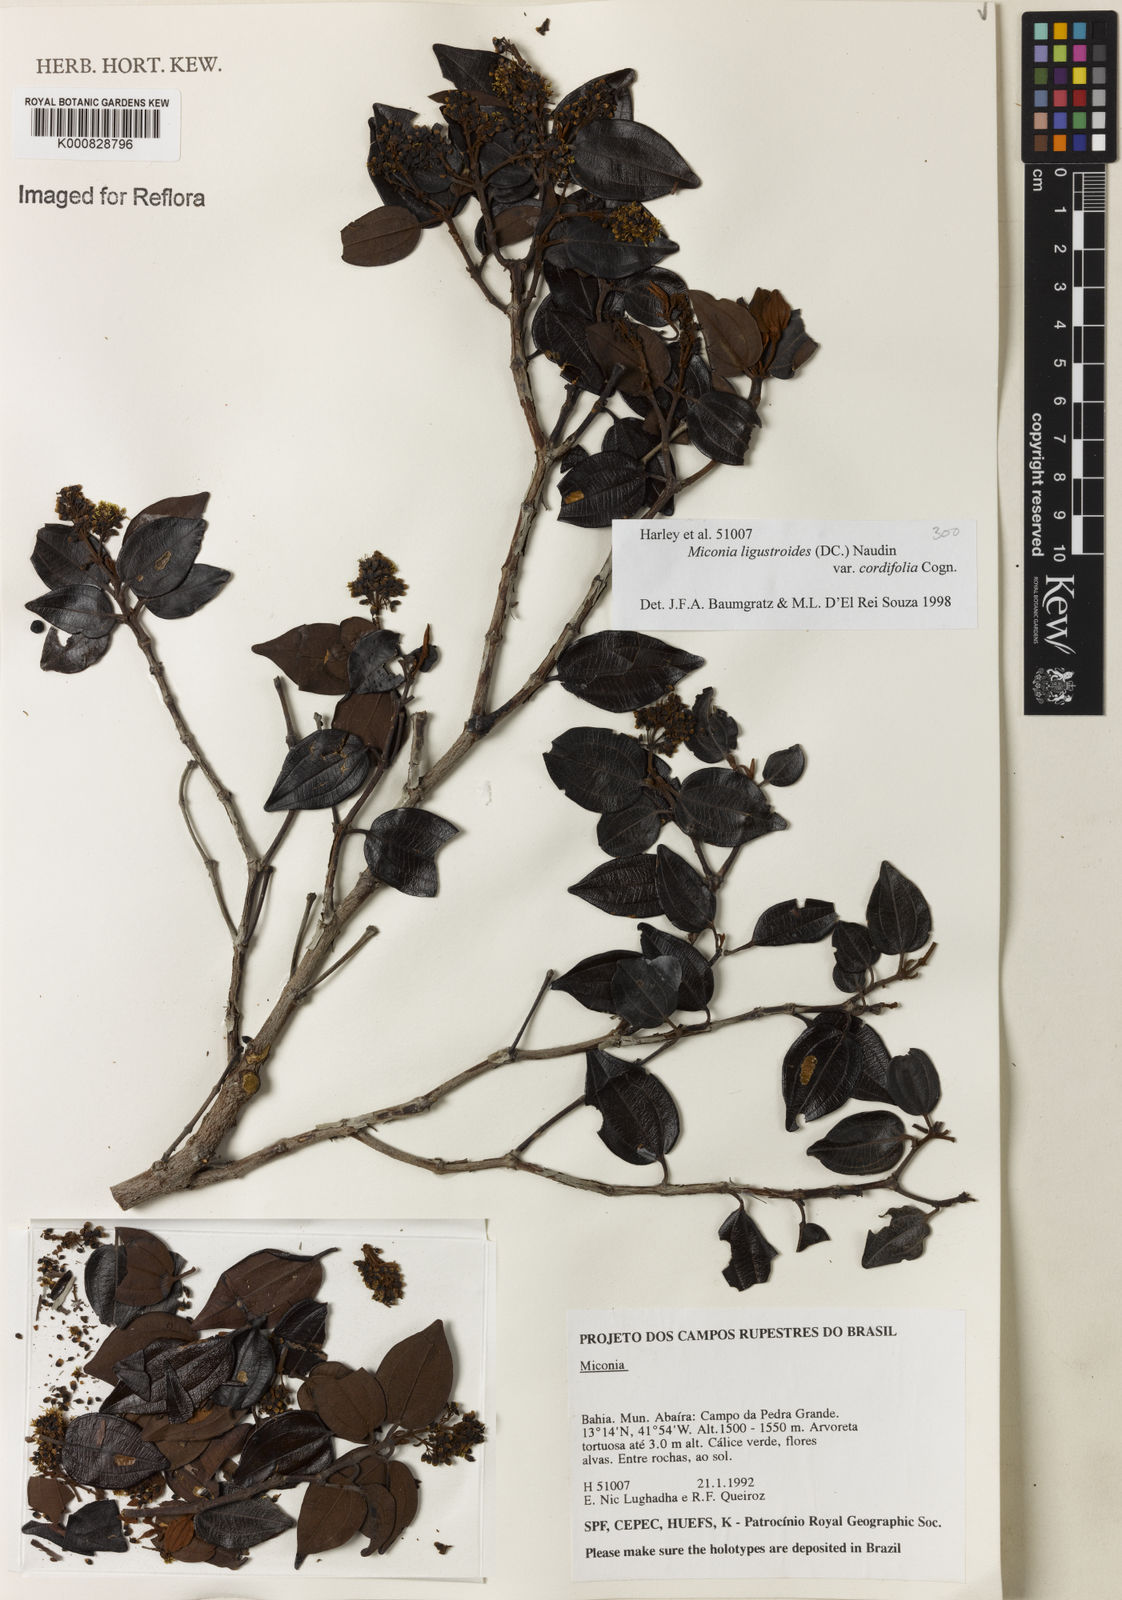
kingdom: Plantae
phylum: Tracheophyta
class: Magnoliopsida
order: Myrtales
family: Melastomataceae
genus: Miconia
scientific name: Miconia ligustroides
